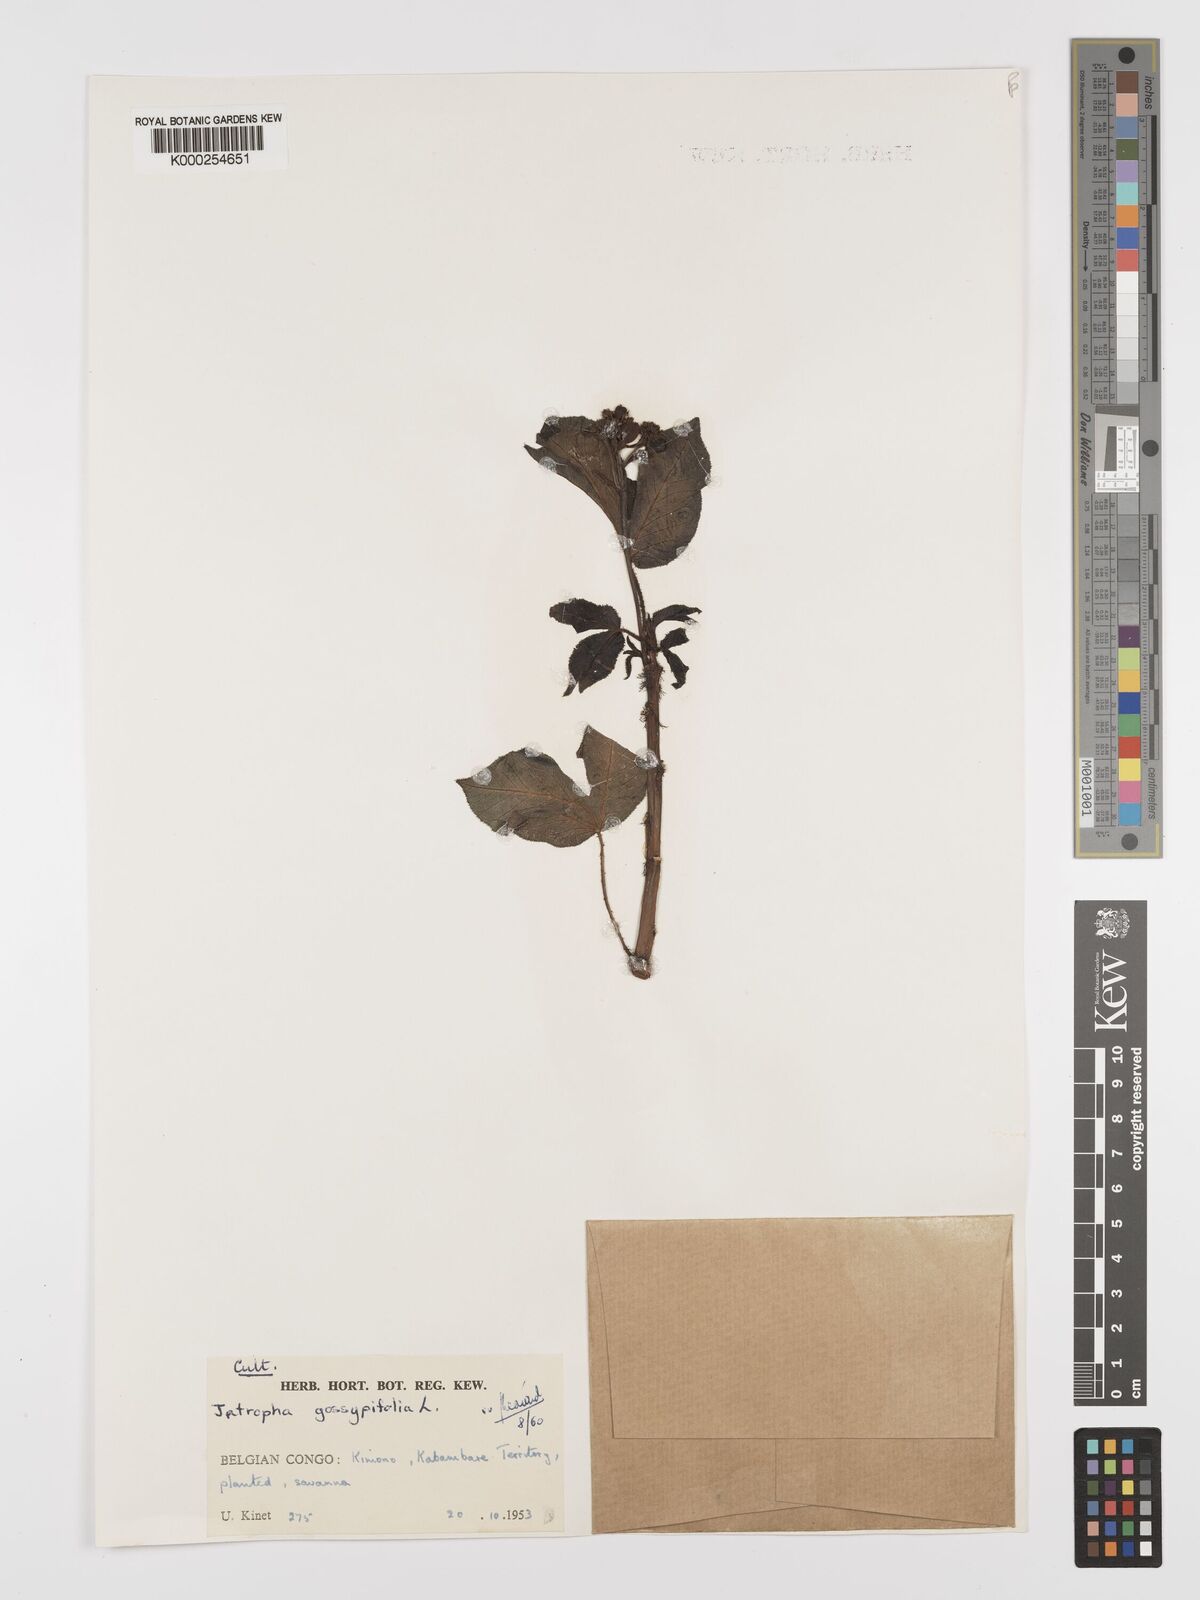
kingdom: Plantae
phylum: Tracheophyta
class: Magnoliopsida
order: Malpighiales
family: Euphorbiaceae
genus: Jatropha
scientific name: Jatropha gossypiifolia
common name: Bellyache bush
